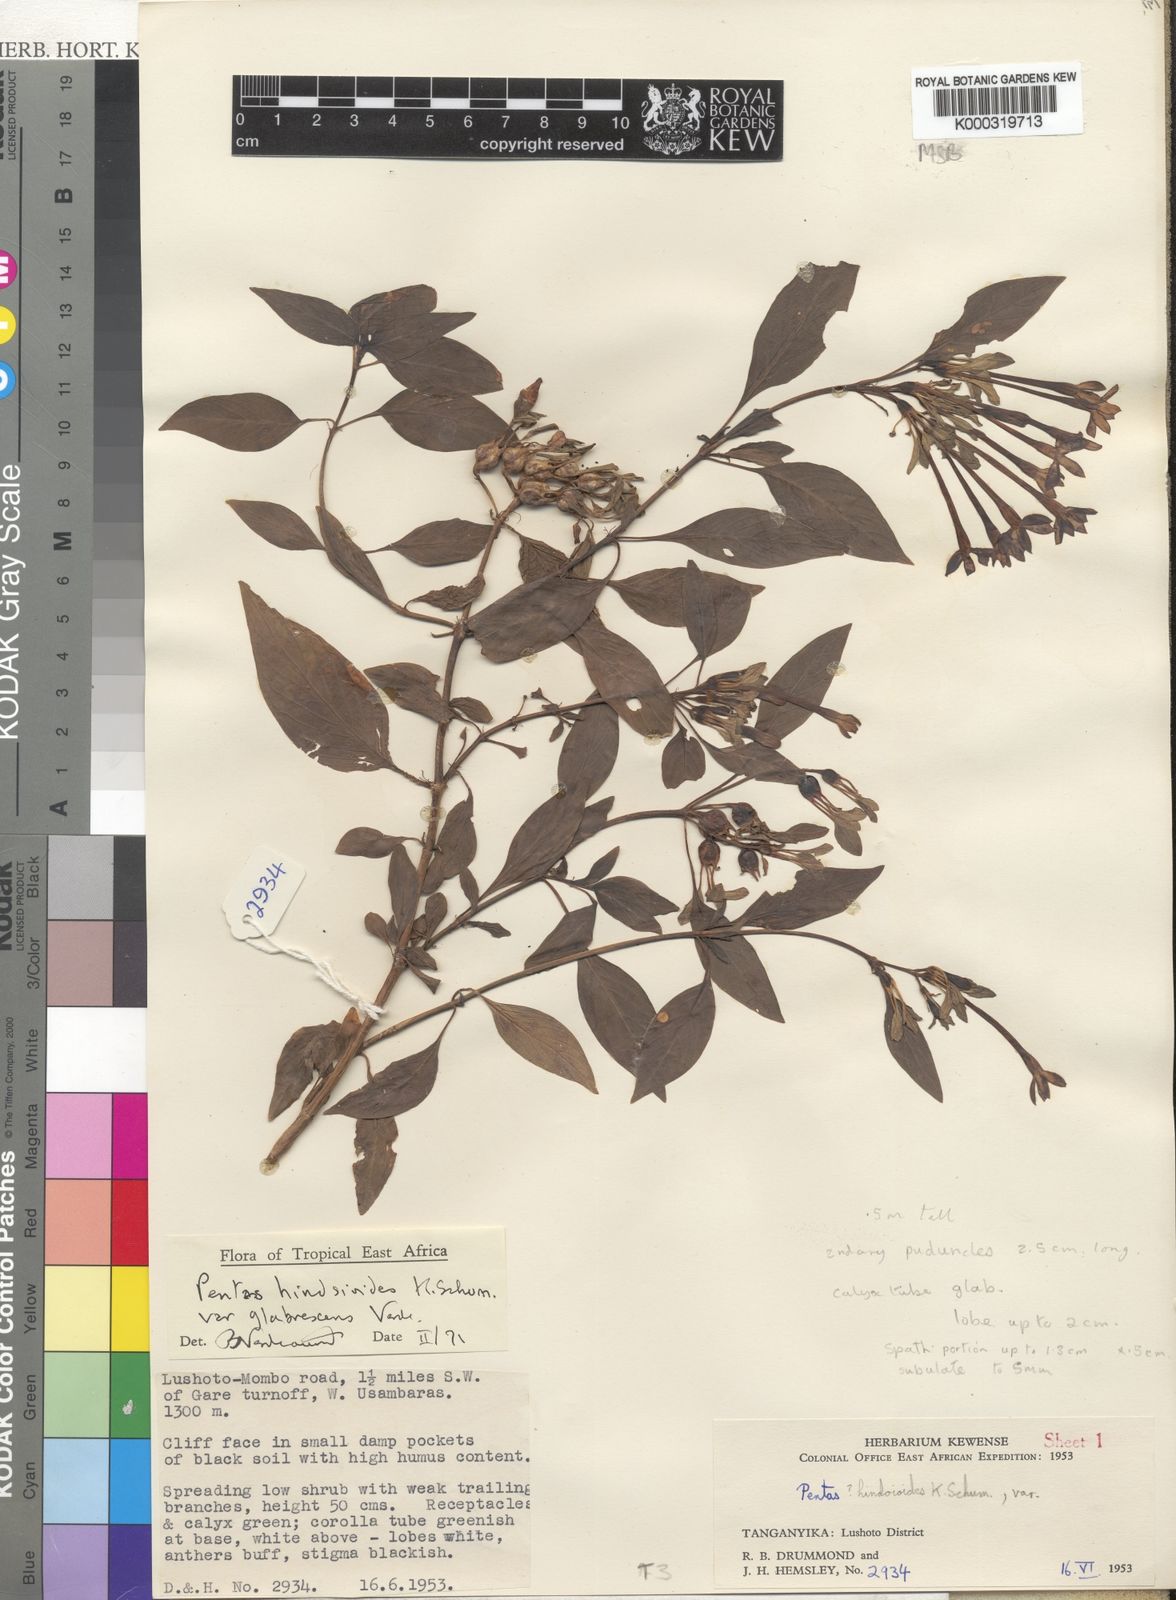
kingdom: Plantae
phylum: Tracheophyta
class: Magnoliopsida
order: Gentianales
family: Rubiaceae
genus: Chamaepentas
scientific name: Chamaepentas hindsioides
